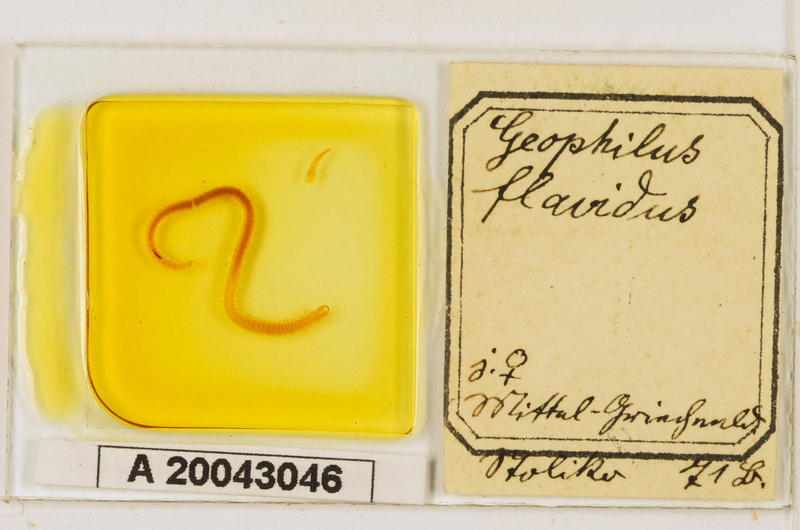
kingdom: Animalia
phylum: Arthropoda
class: Chilopoda
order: Geophilomorpha
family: Geophilidae
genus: Clinopodes
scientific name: Clinopodes flavidus
